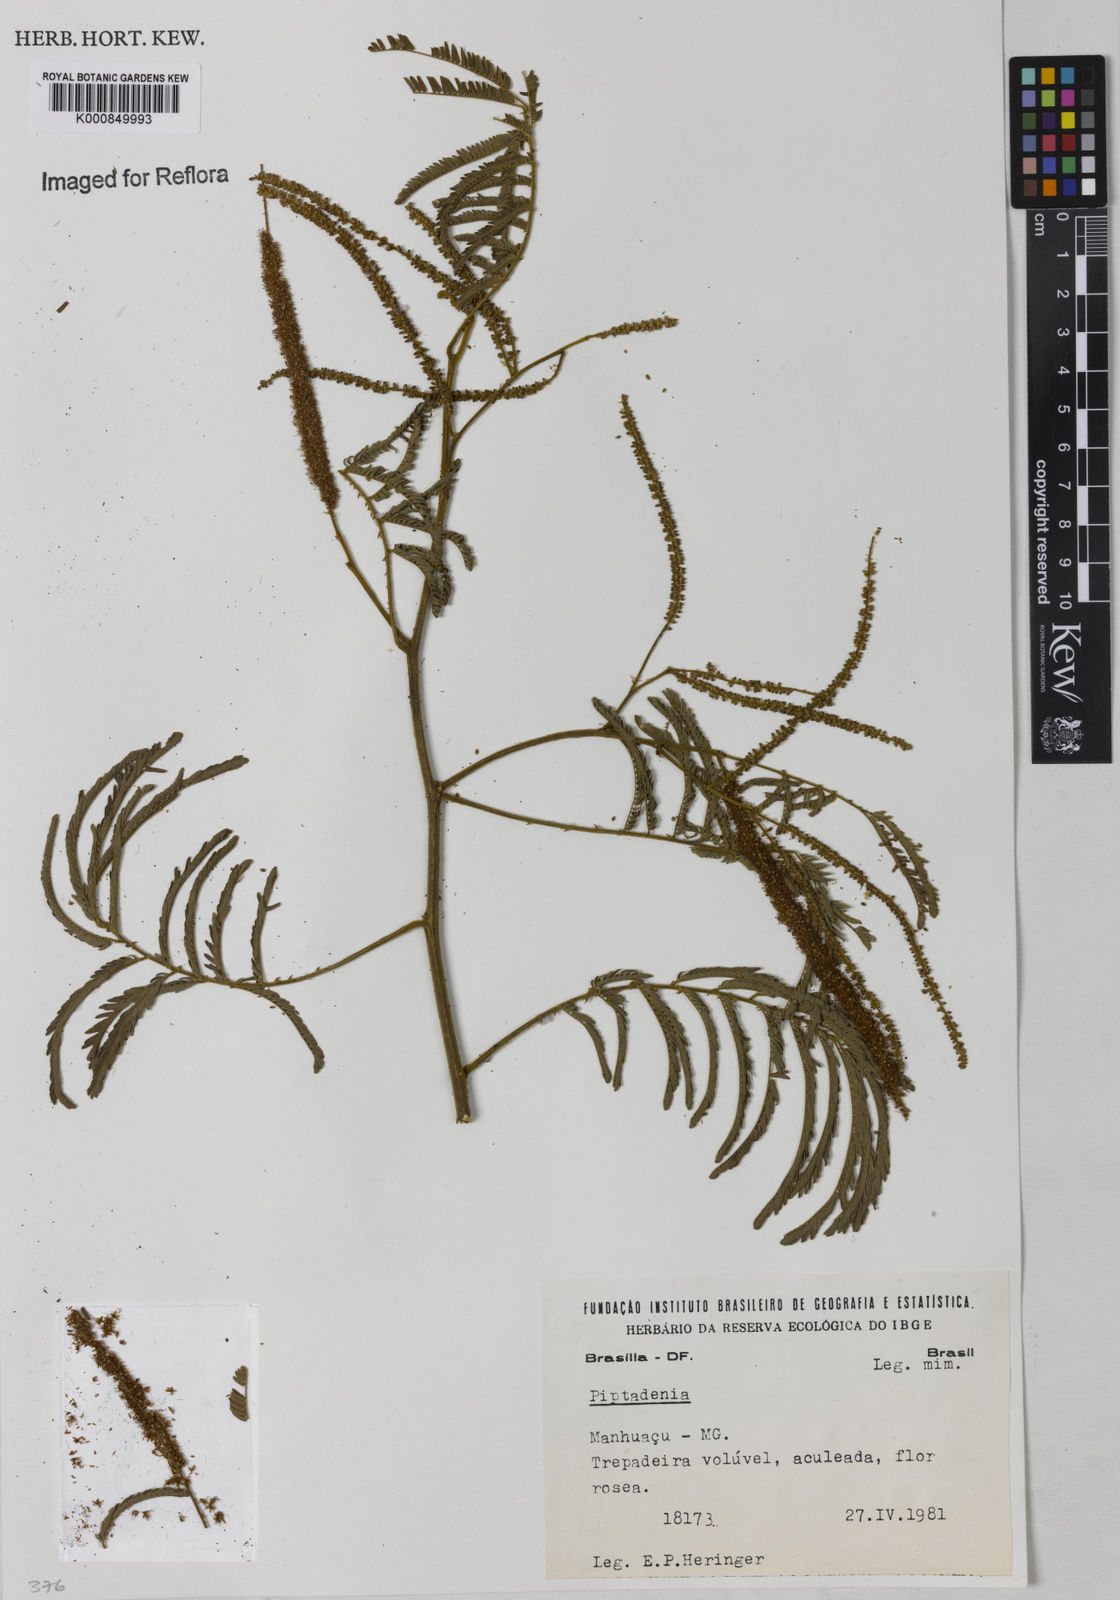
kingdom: Plantae
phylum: Tracheophyta
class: Magnoliopsida
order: Fabales
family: Fabaceae
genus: Piptadenia
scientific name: Piptadenia micracantha
